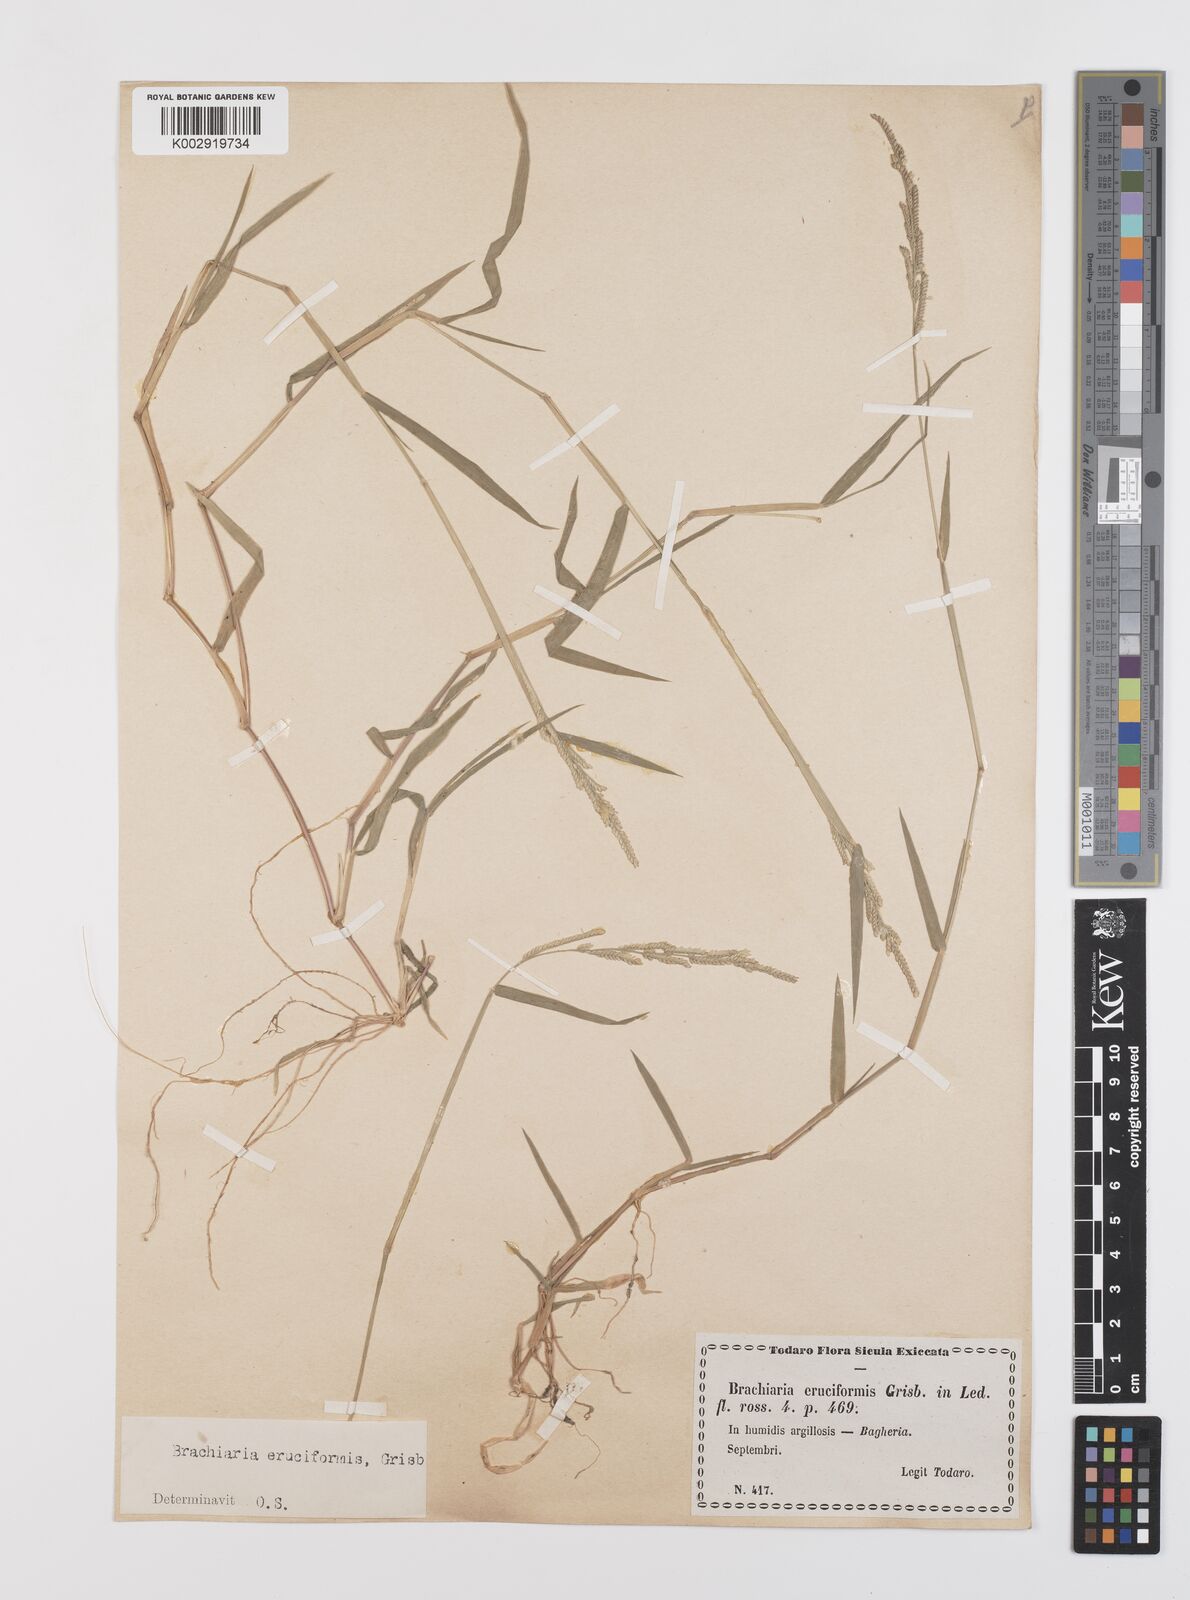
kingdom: Plantae
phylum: Tracheophyta
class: Liliopsida
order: Poales
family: Poaceae
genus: Moorochloa
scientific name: Moorochloa eruciformis
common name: Sweet signalgrass
